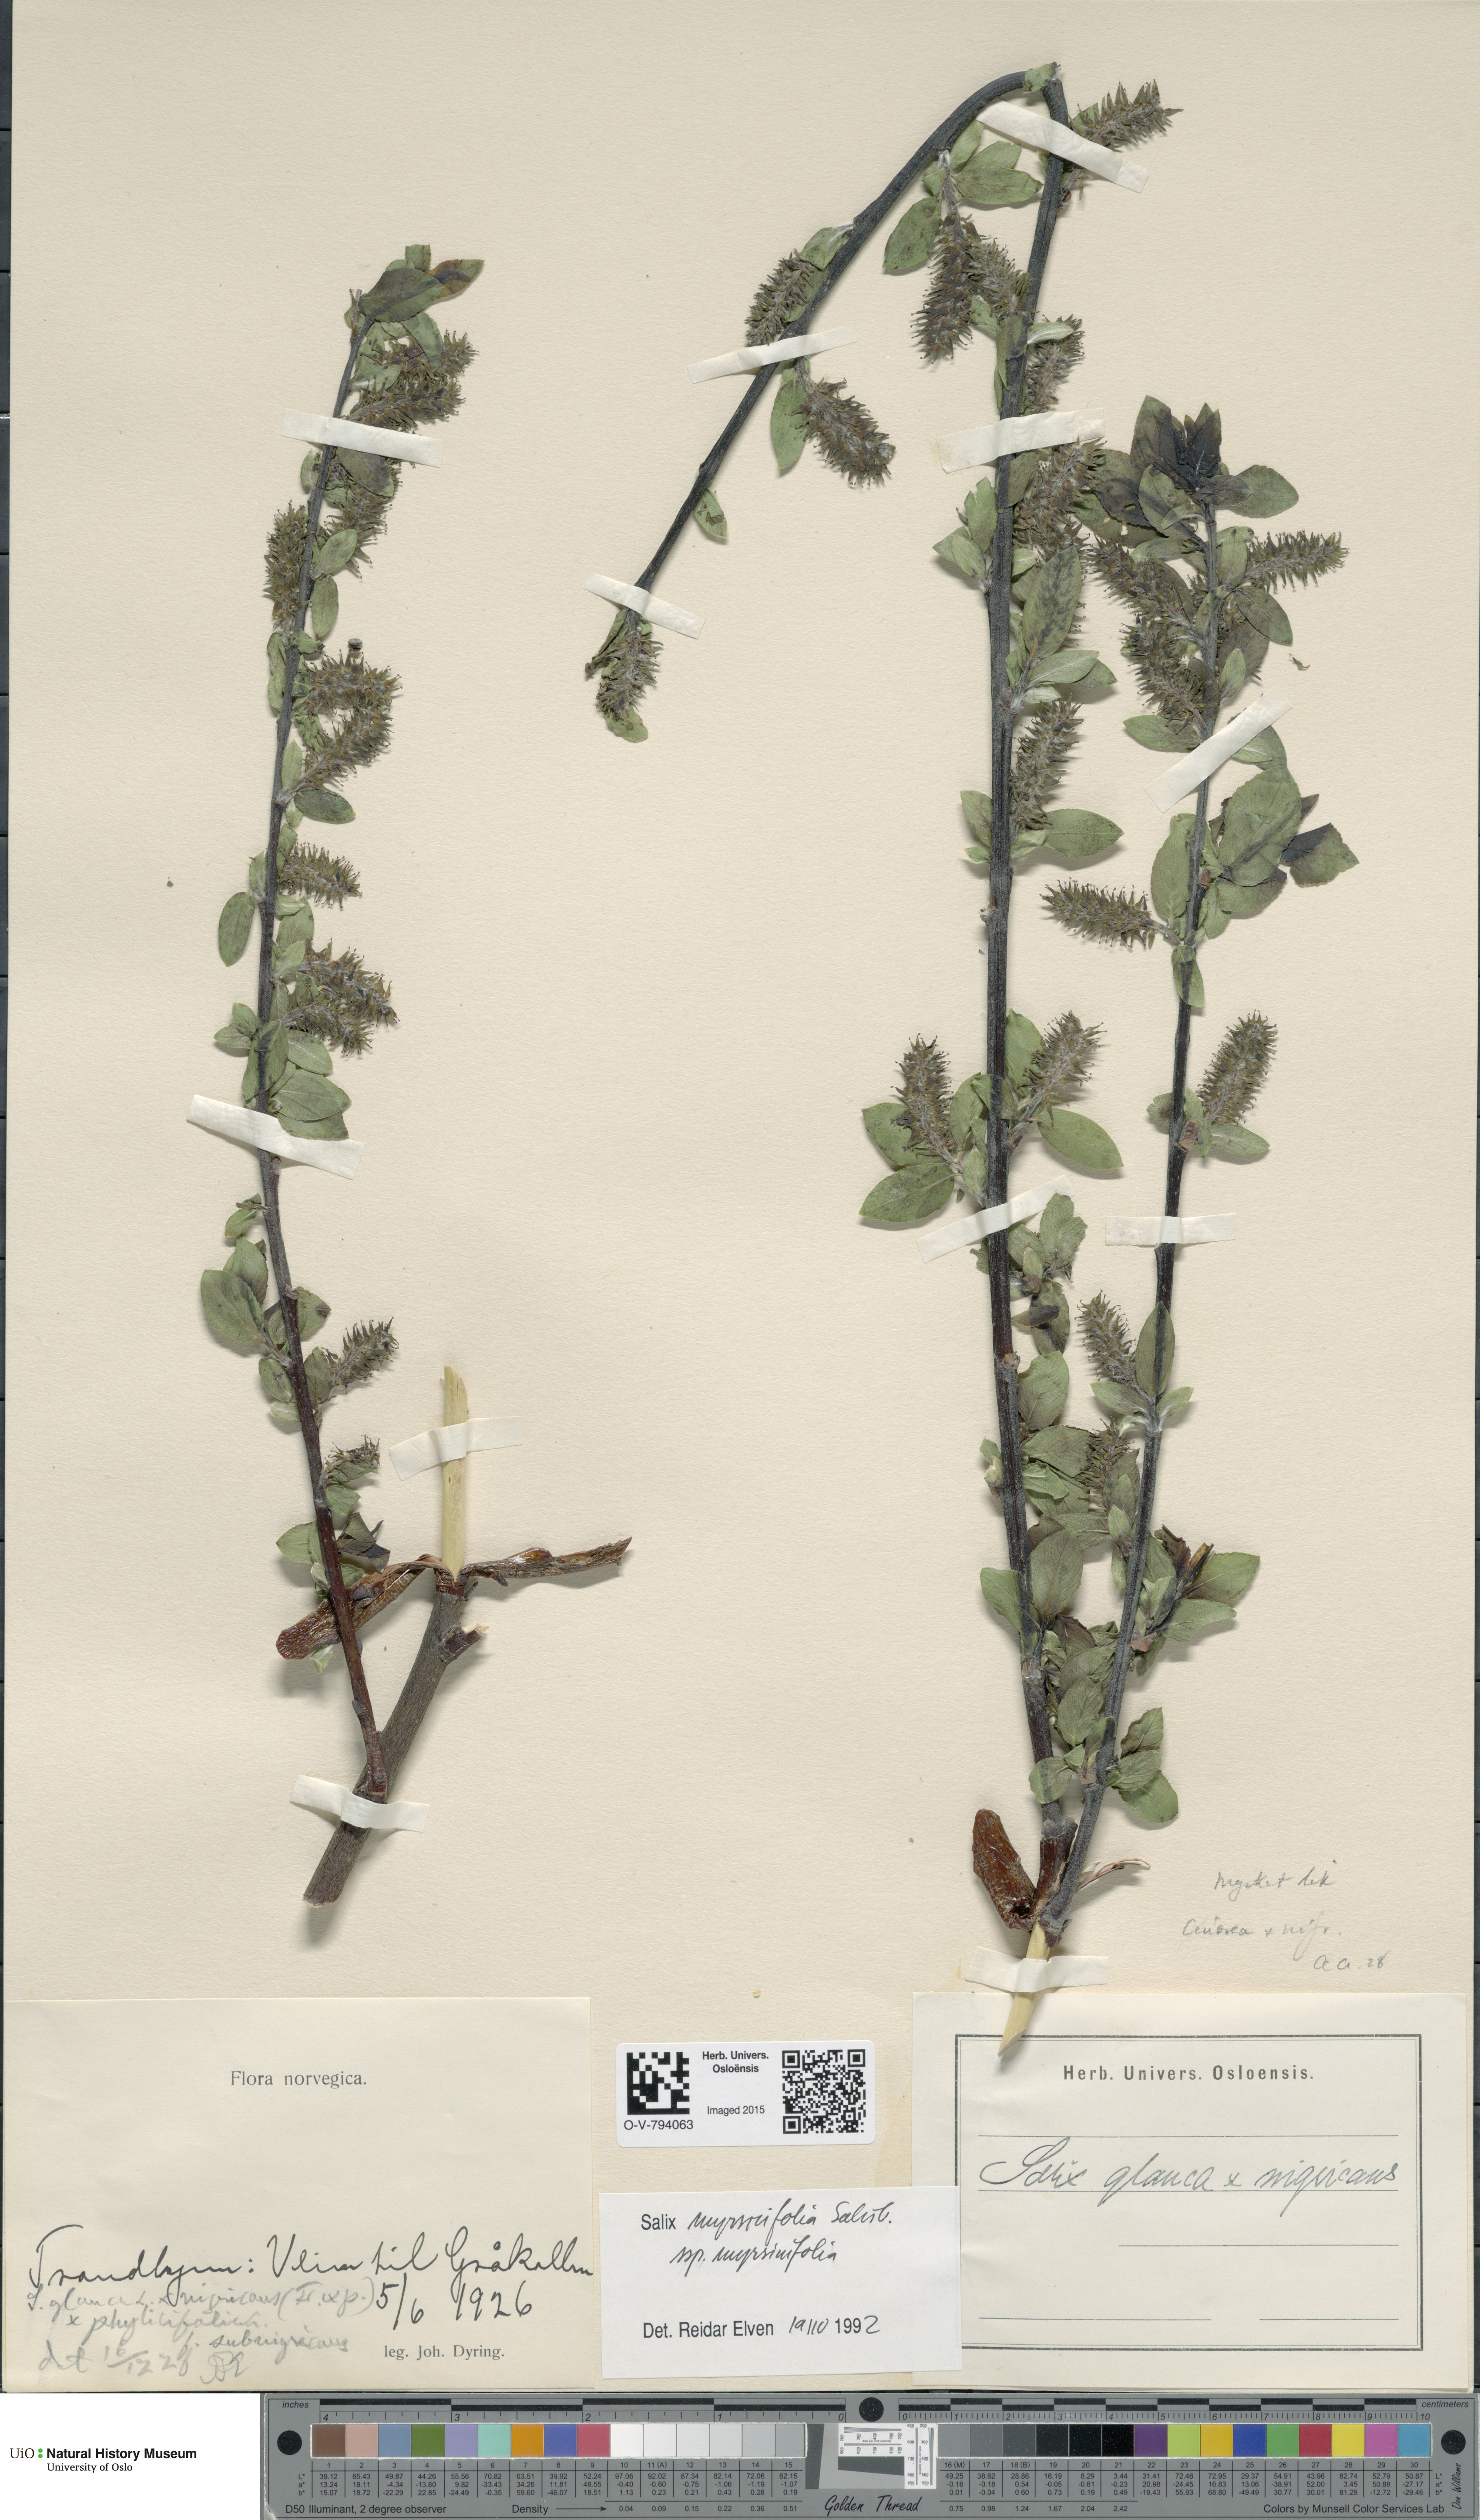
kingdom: Plantae
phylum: Tracheophyta
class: Magnoliopsida
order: Malpighiales
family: Salicaceae
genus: Salix
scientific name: Salix myrsinifolia
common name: Dark-leaved willow
